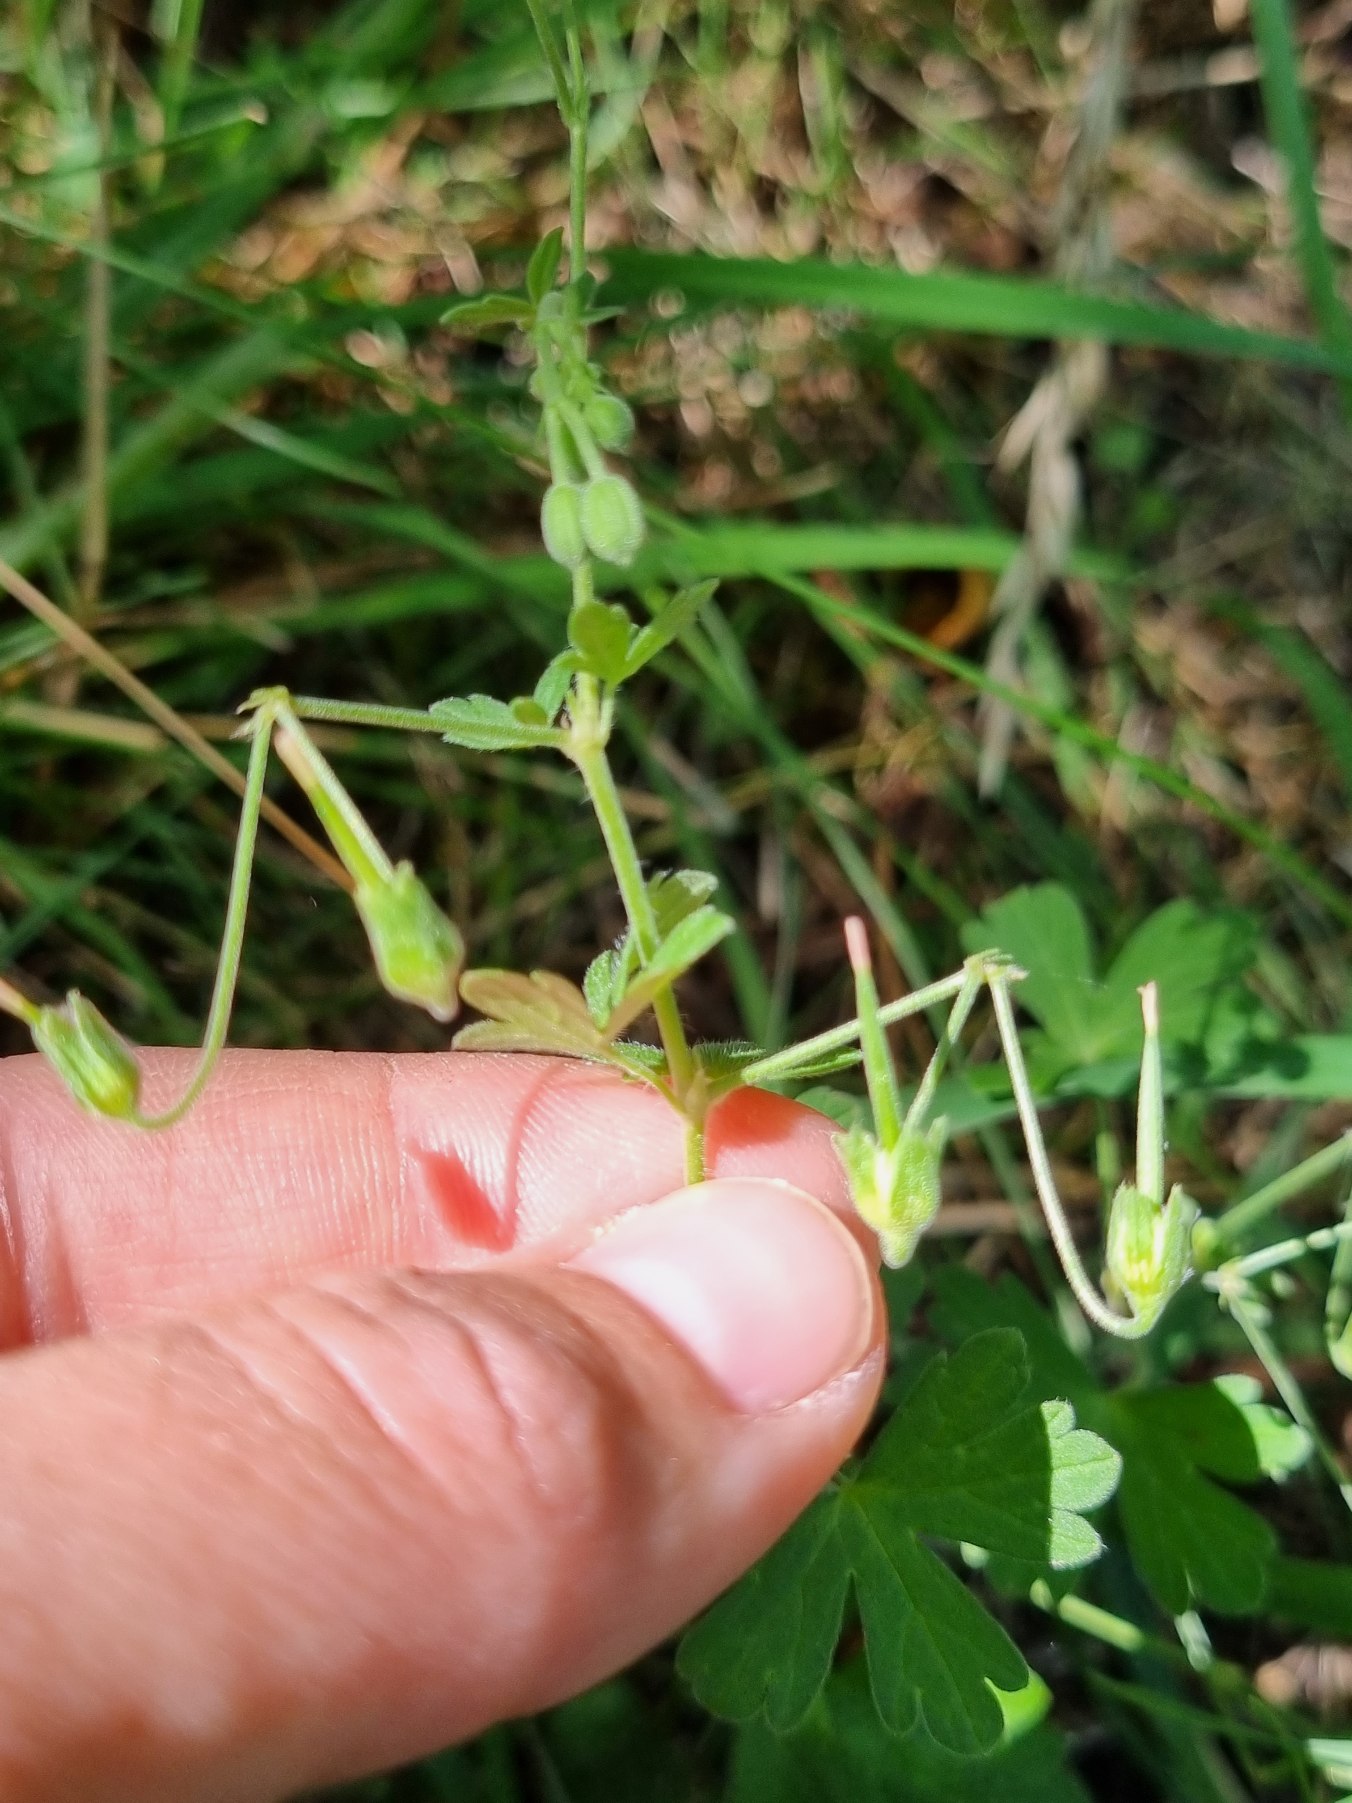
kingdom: Plantae
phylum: Tracheophyta
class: Magnoliopsida
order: Geraniales
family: Geraniaceae
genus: Geranium
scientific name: Geranium pyrenaicum
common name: Pyrenæisk storkenæb
